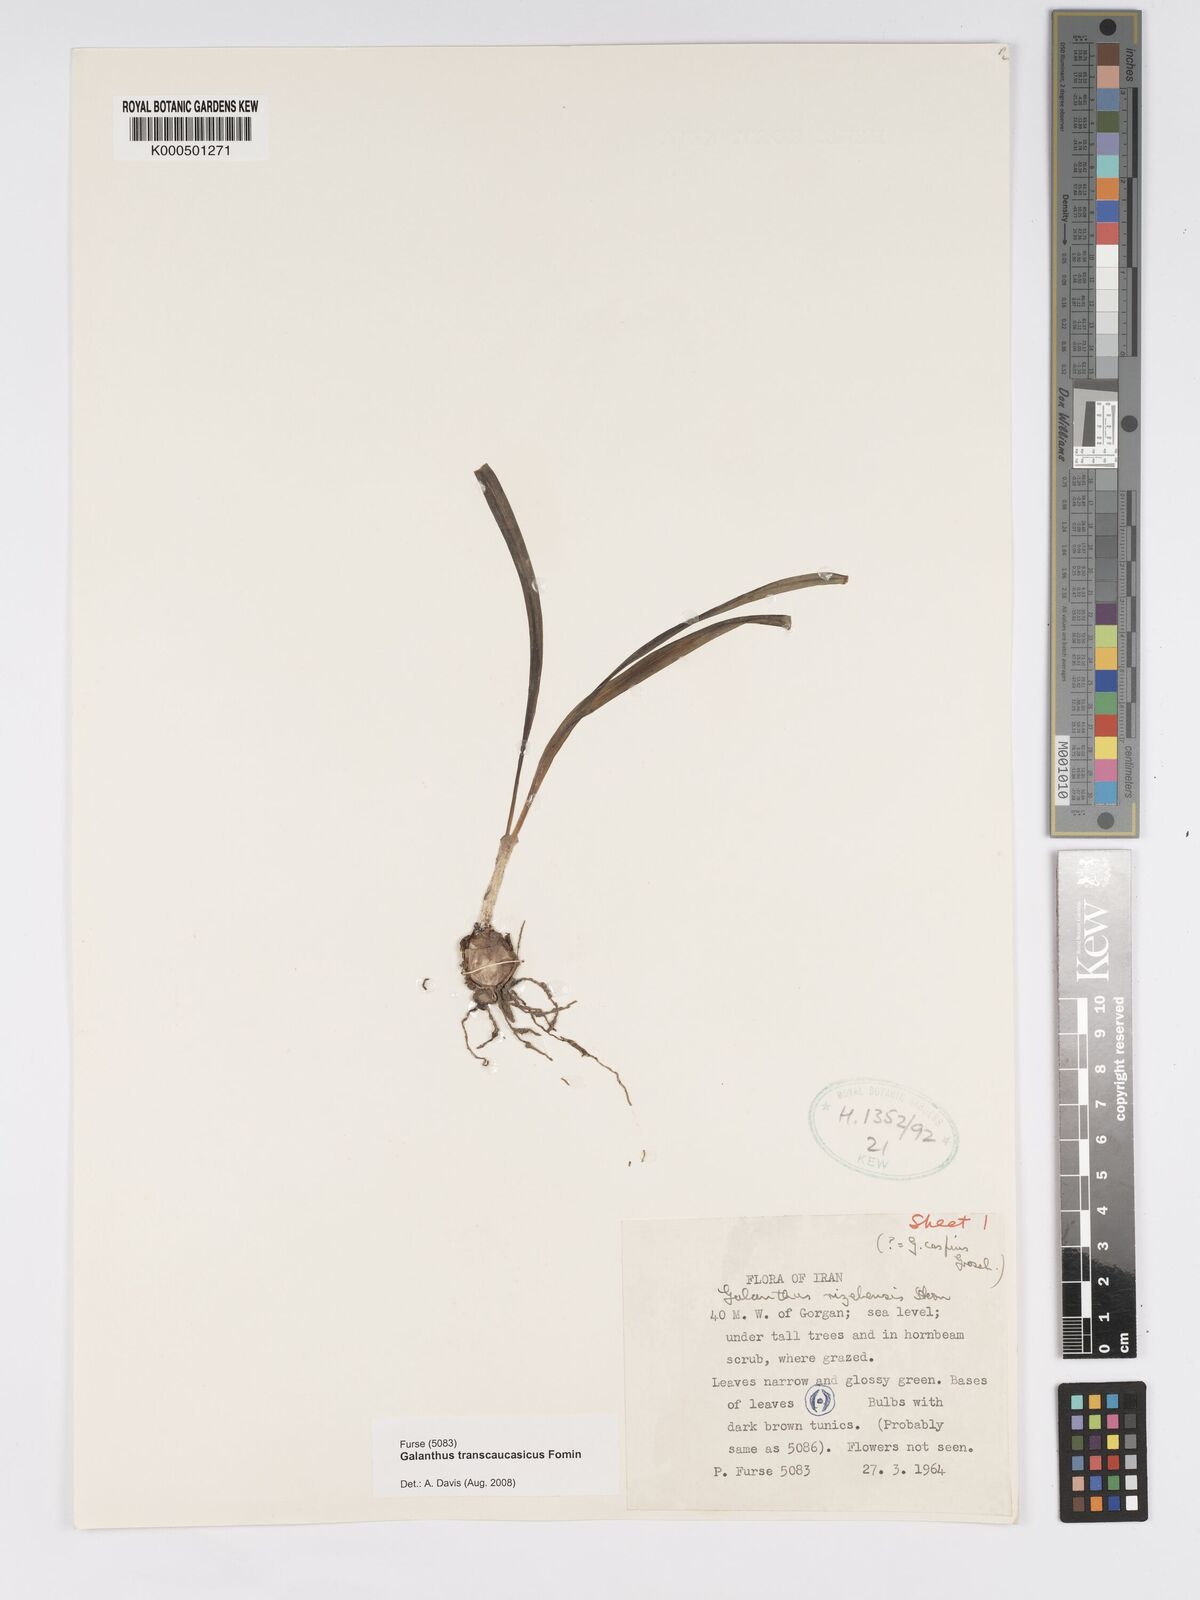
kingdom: Plantae
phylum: Tracheophyta
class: Liliopsida
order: Asparagales
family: Amaryllidaceae
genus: Galanthus
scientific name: Galanthus transcaucasicus
